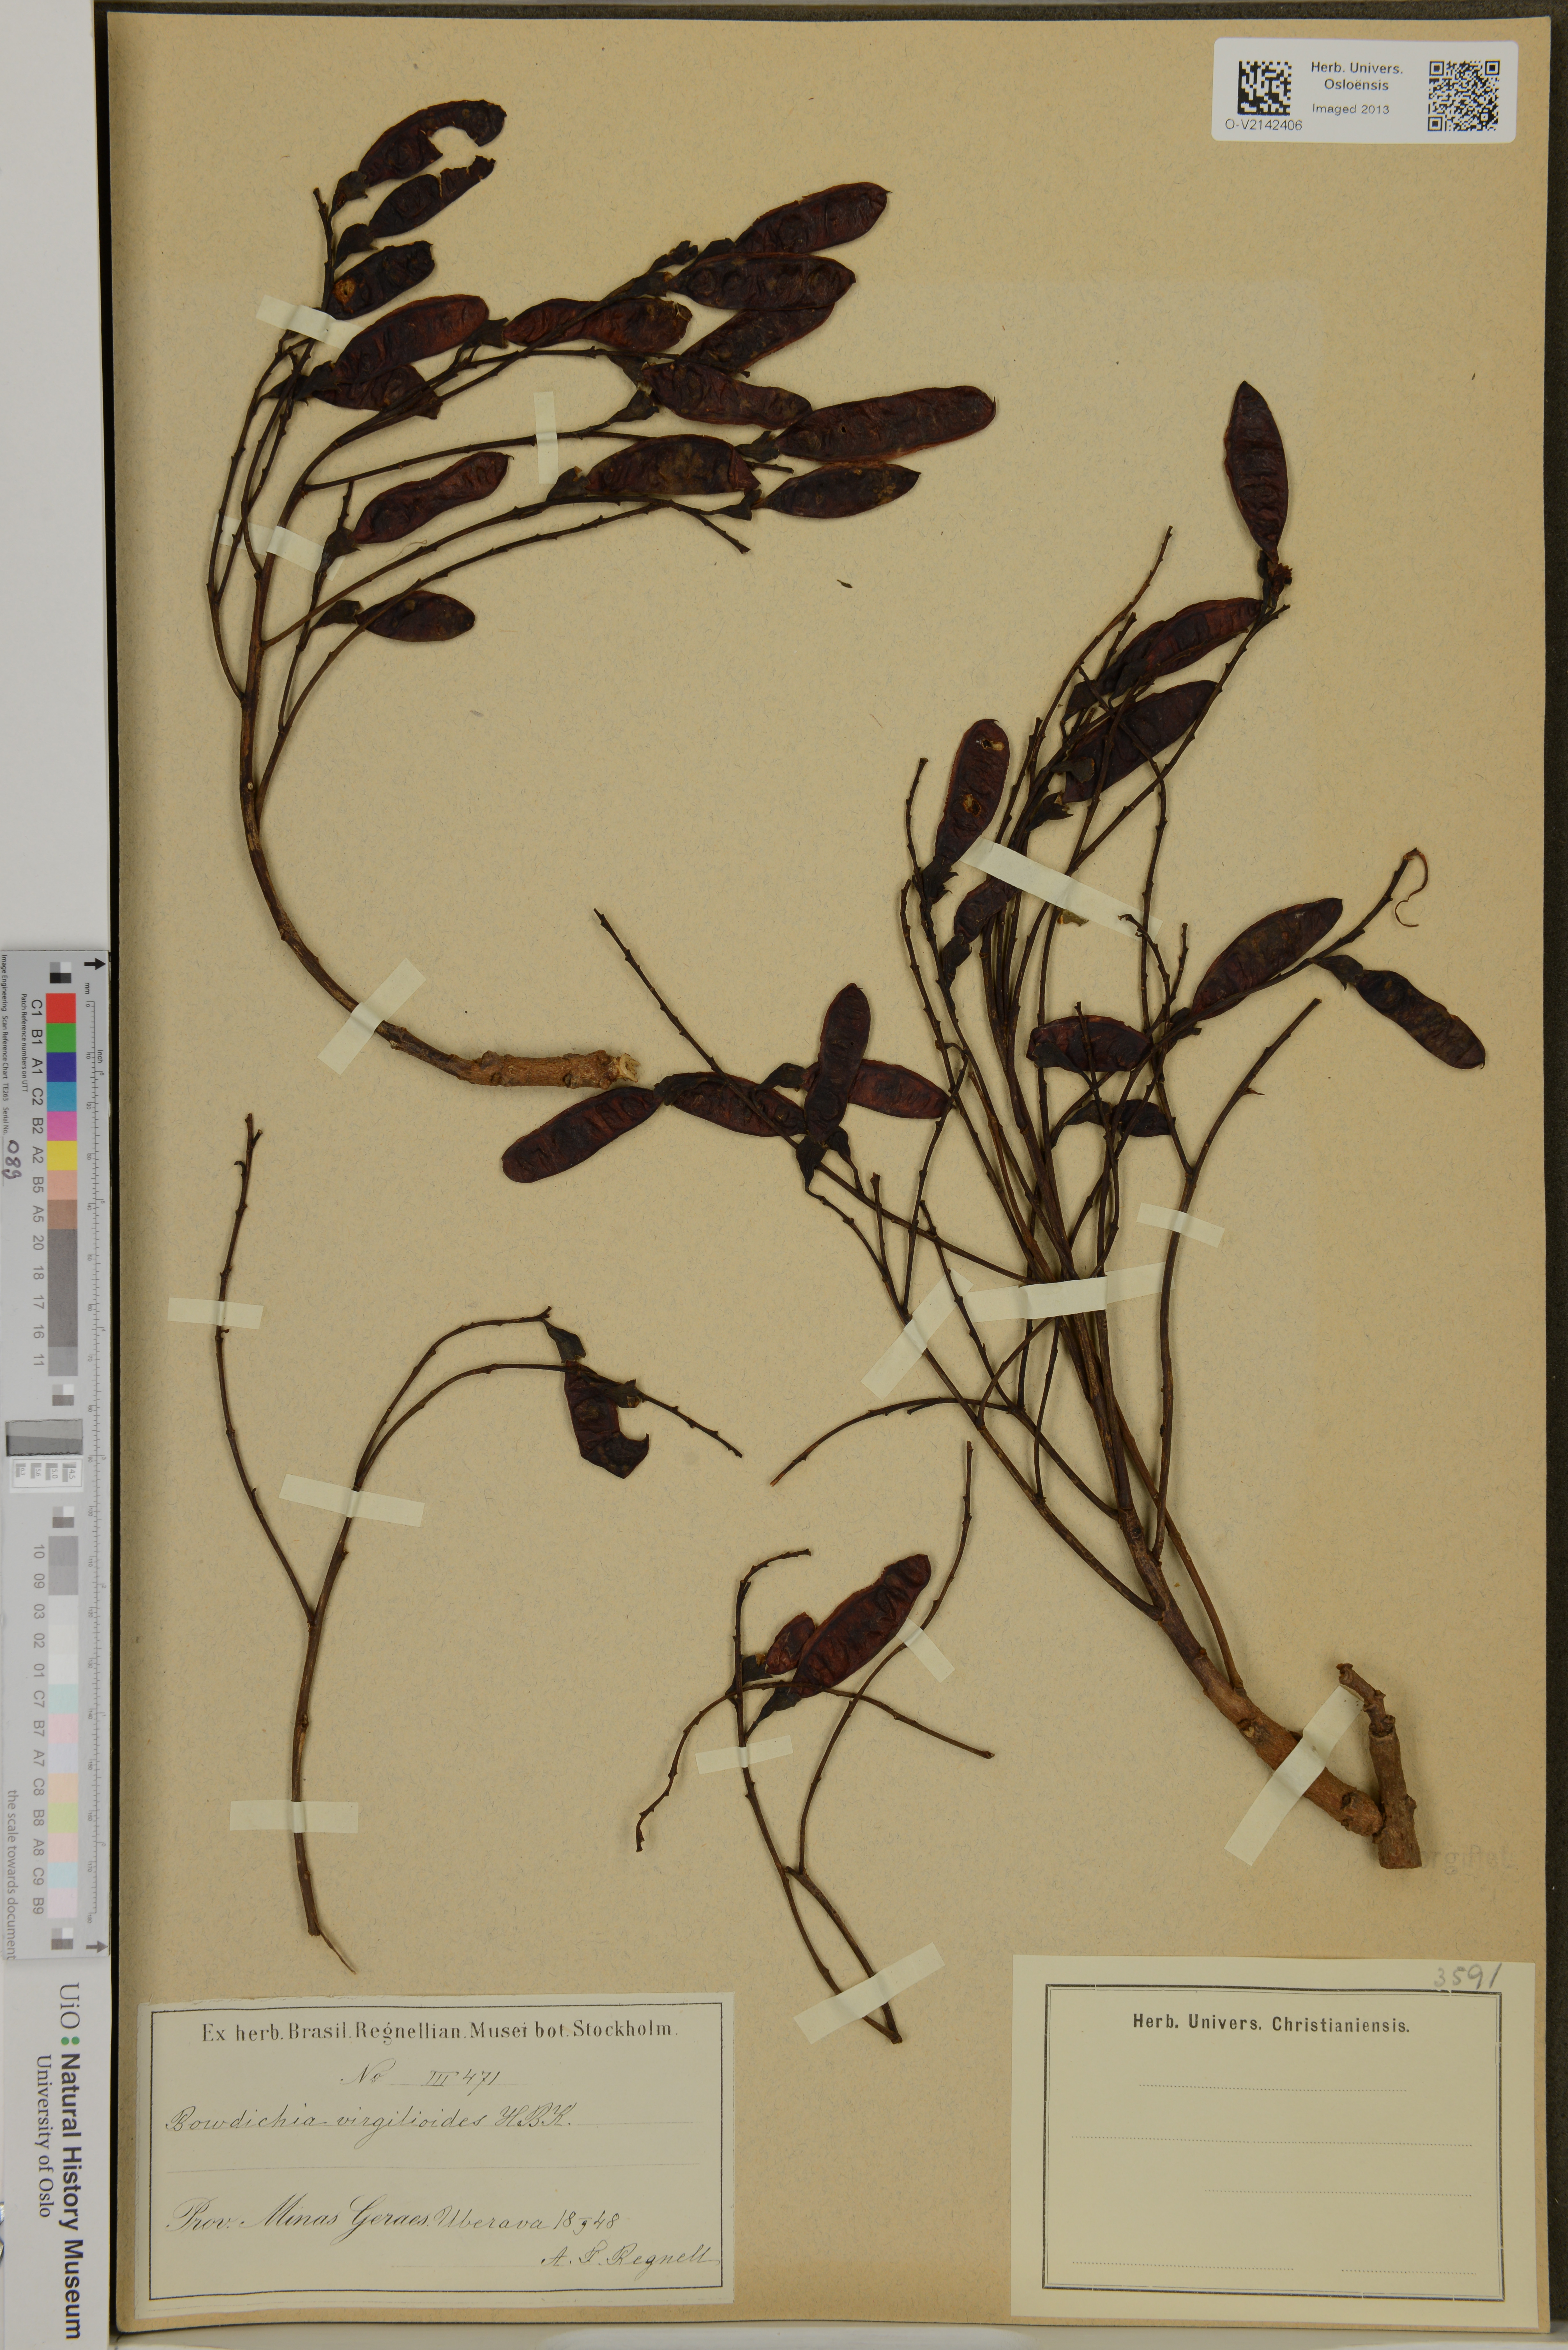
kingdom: Plantae
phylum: Tracheophyta
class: Magnoliopsida
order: Fabales
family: Fabaceae
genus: Bowdichia
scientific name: Bowdichia virgilioides
